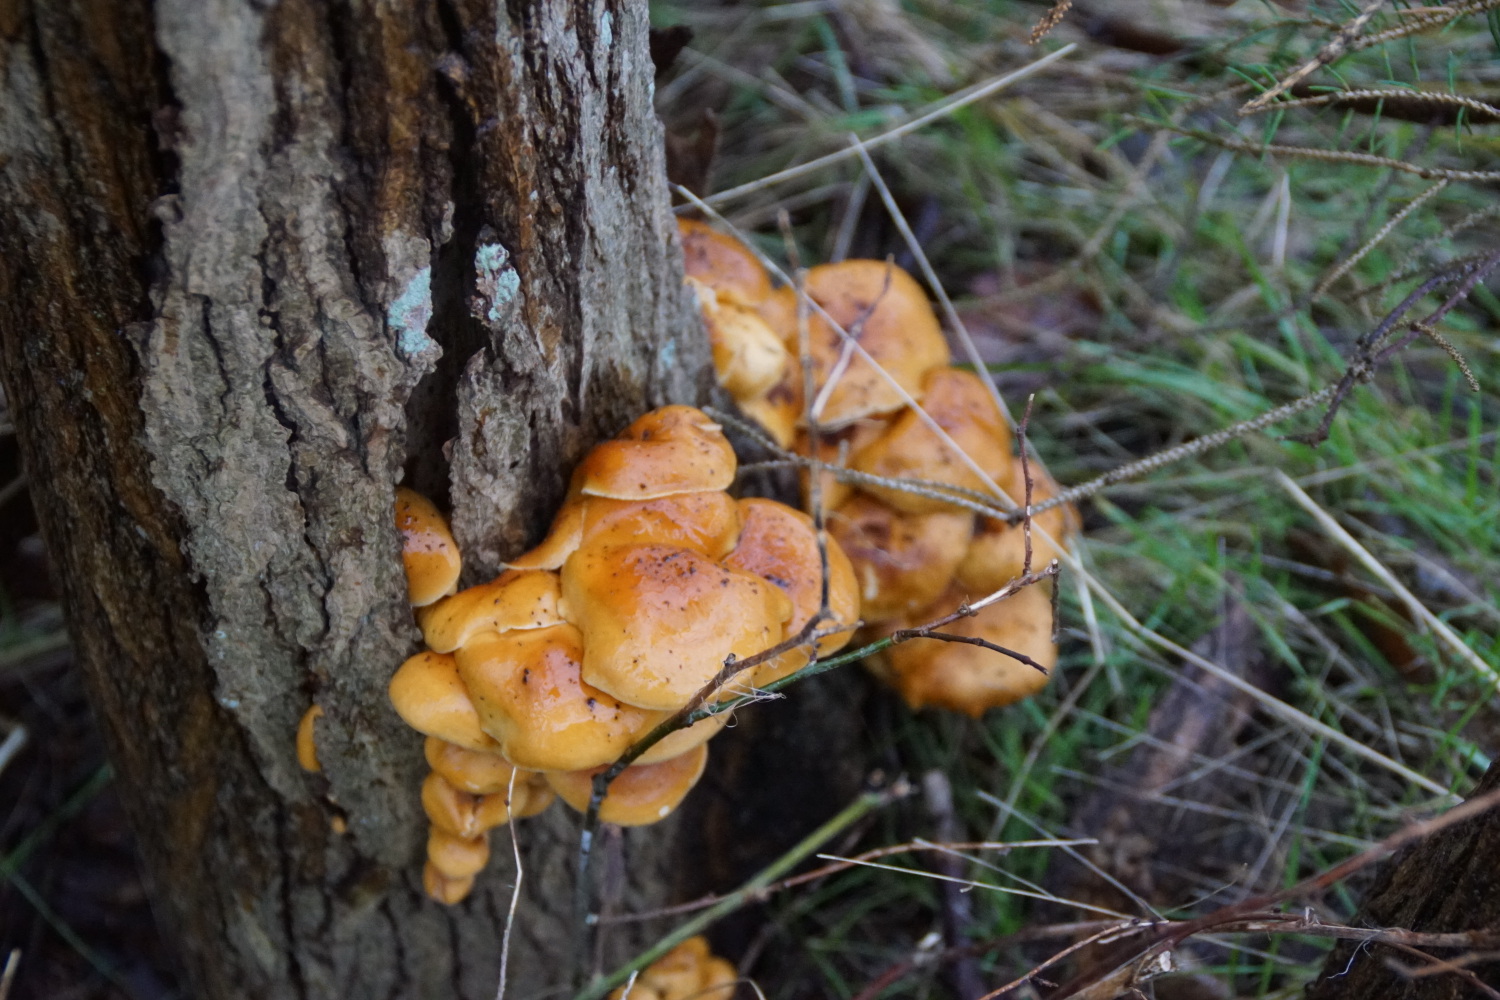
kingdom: Fungi
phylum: Basidiomycota
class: Agaricomycetes
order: Agaricales
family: Physalacriaceae
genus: Flammulina
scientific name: Flammulina velutipes
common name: gul fløjlsfod
